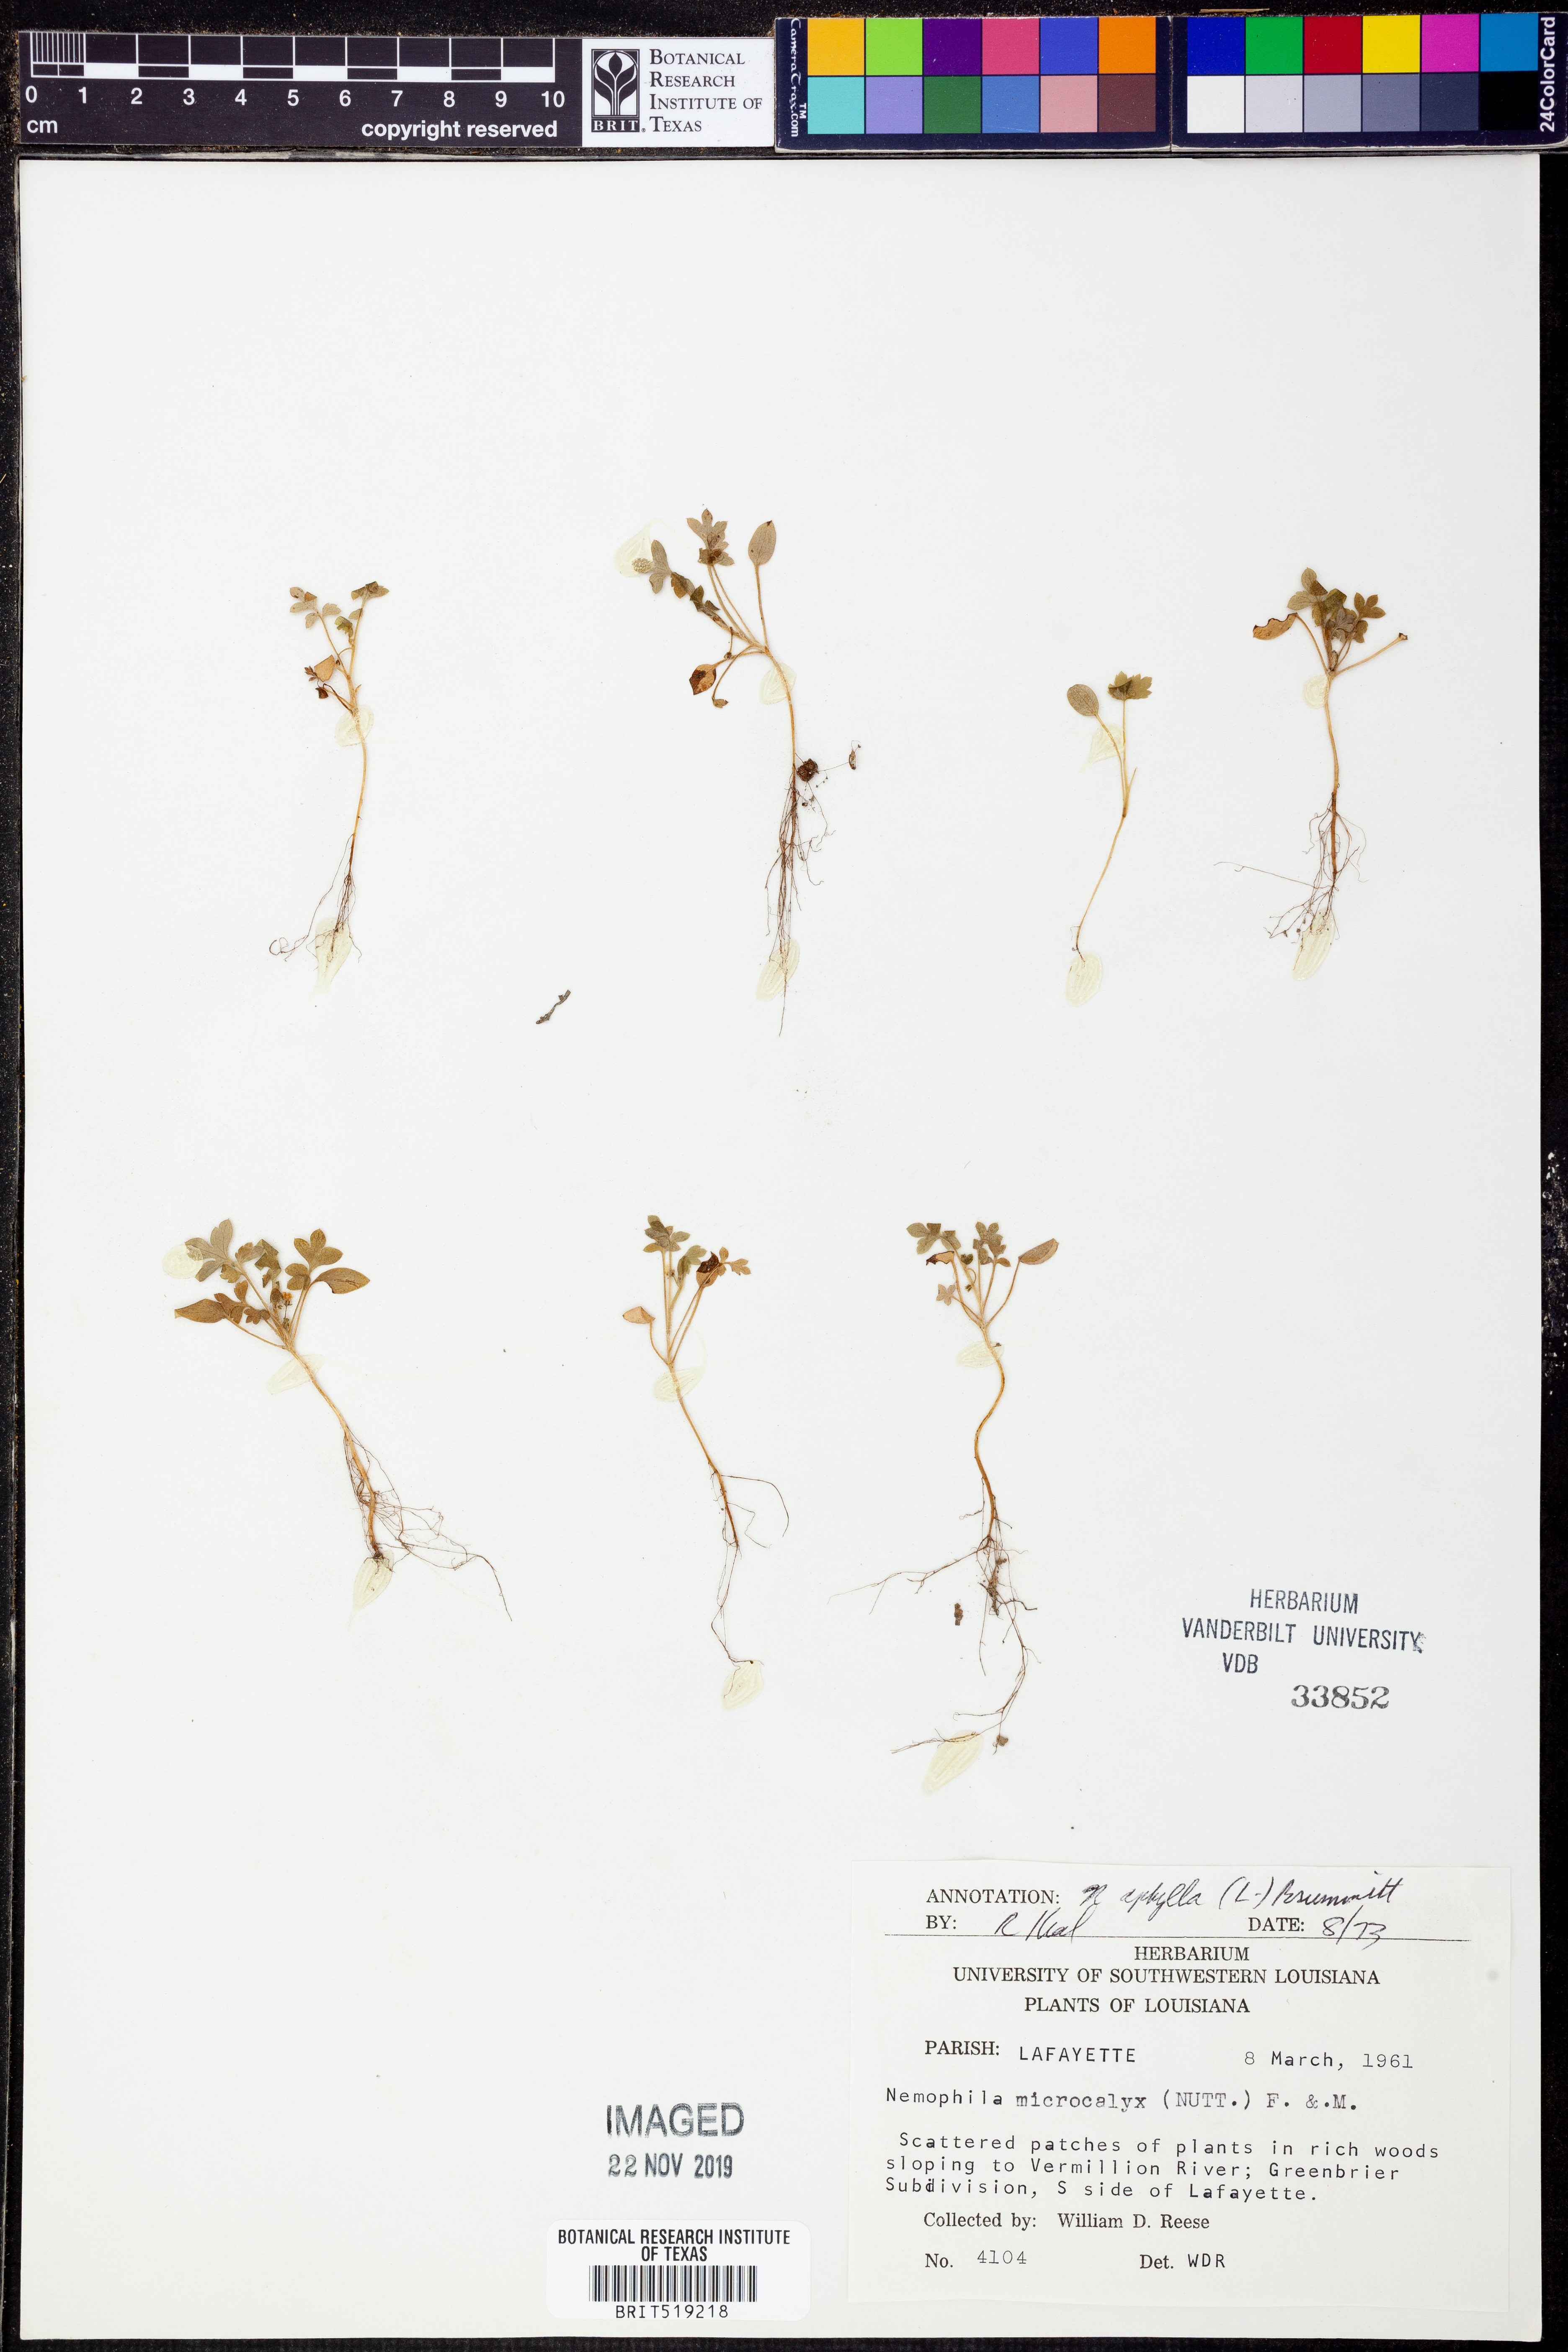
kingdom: Plantae
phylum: Tracheophyta
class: Magnoliopsida
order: Boraginales
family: Hydrophyllaceae
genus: Nemophila
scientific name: Nemophila aphylla
